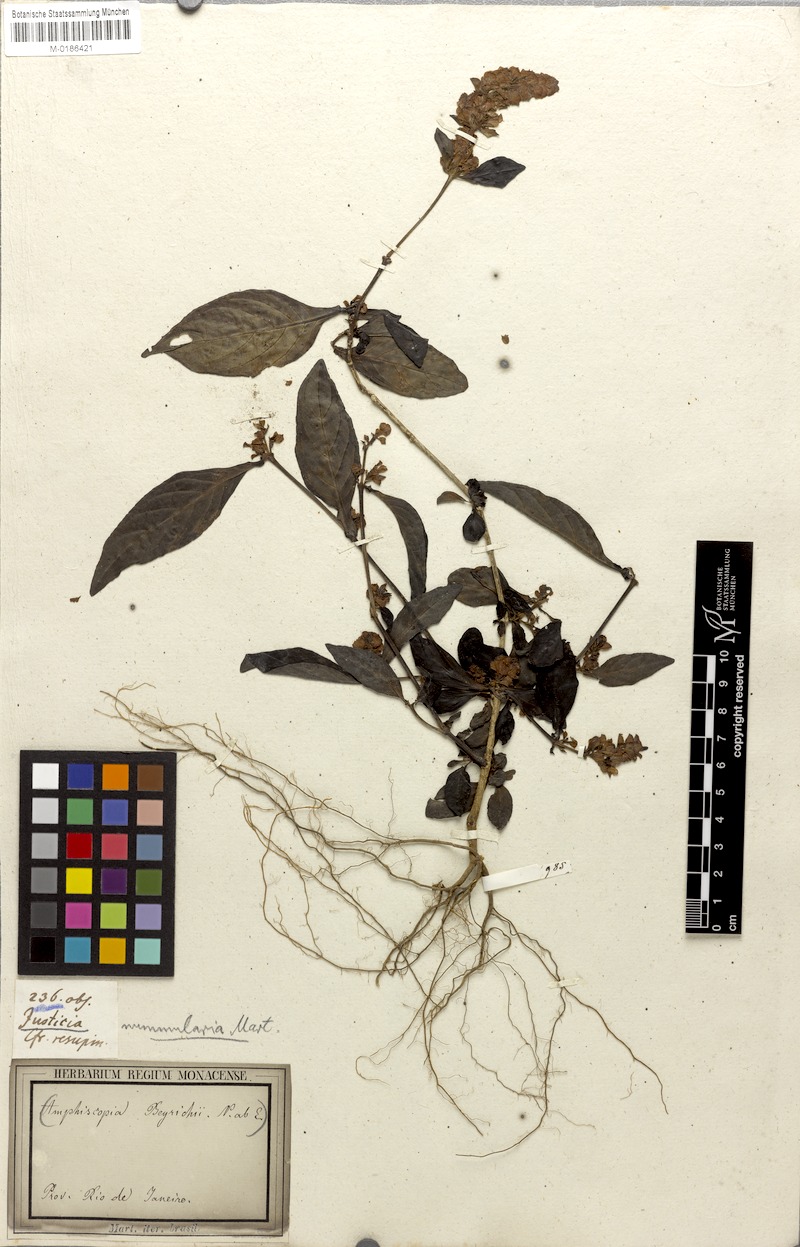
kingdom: Plantae
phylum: Tracheophyta
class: Magnoliopsida
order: Lamiales
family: Acanthaceae
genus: Dianthera
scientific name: Dianthera brasiliensis
